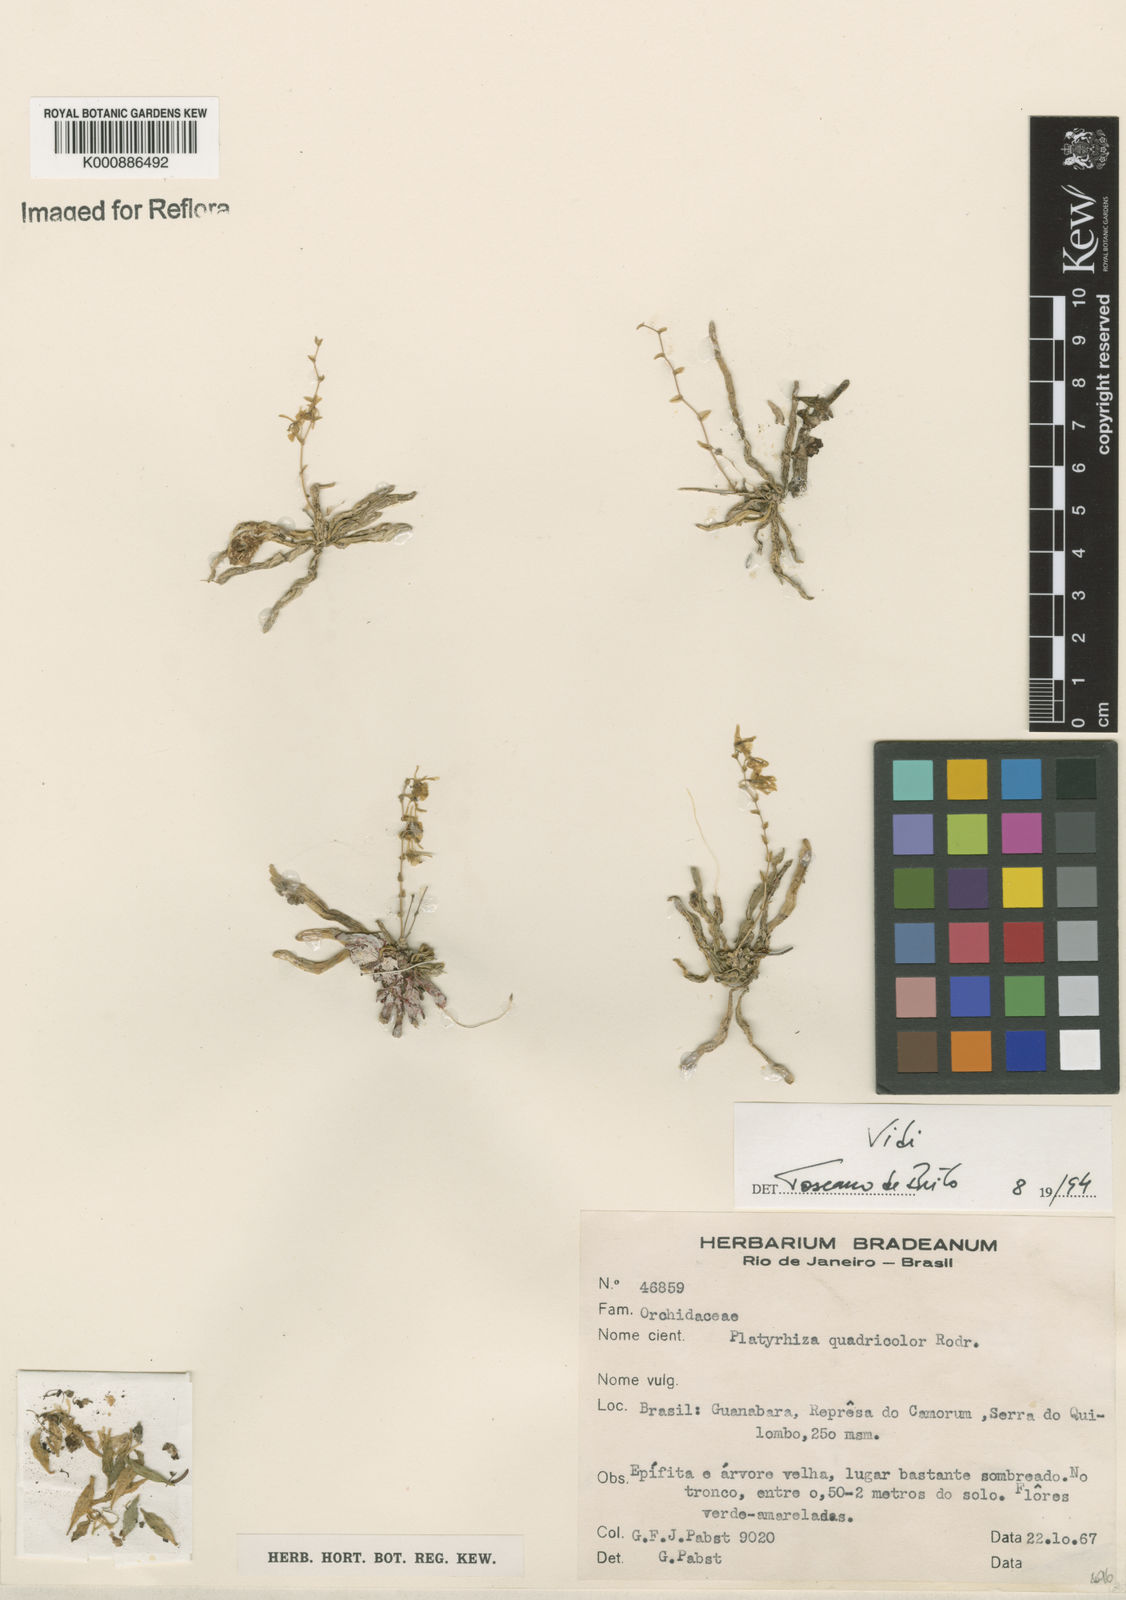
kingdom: Plantae
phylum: Tracheophyta
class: Liliopsida
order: Asparagales
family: Orchidaceae
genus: Platyrhiza
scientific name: Platyrhiza quadricolor
